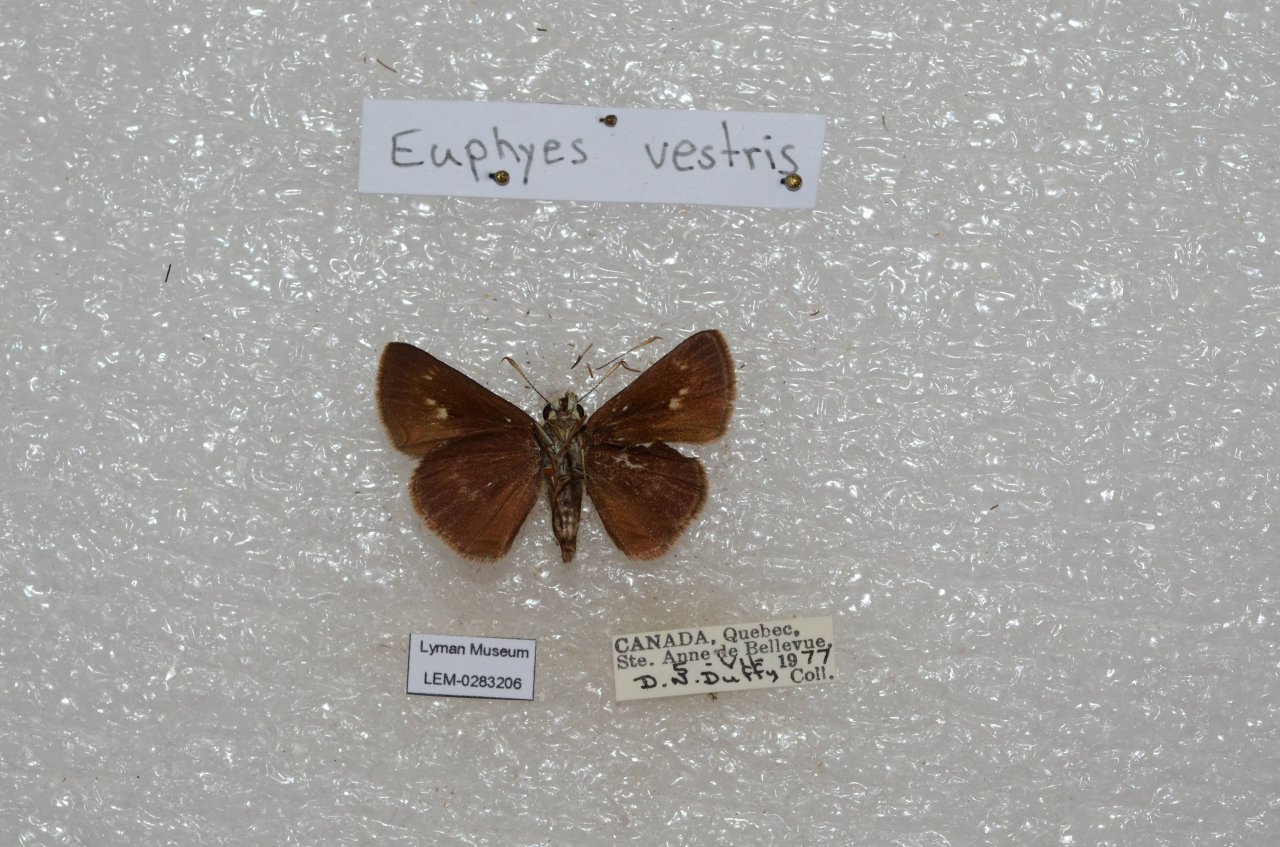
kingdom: Animalia
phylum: Arthropoda
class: Insecta
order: Lepidoptera
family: Hesperiidae
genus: Euphyes
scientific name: Euphyes vestris
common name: Dun Skipper
